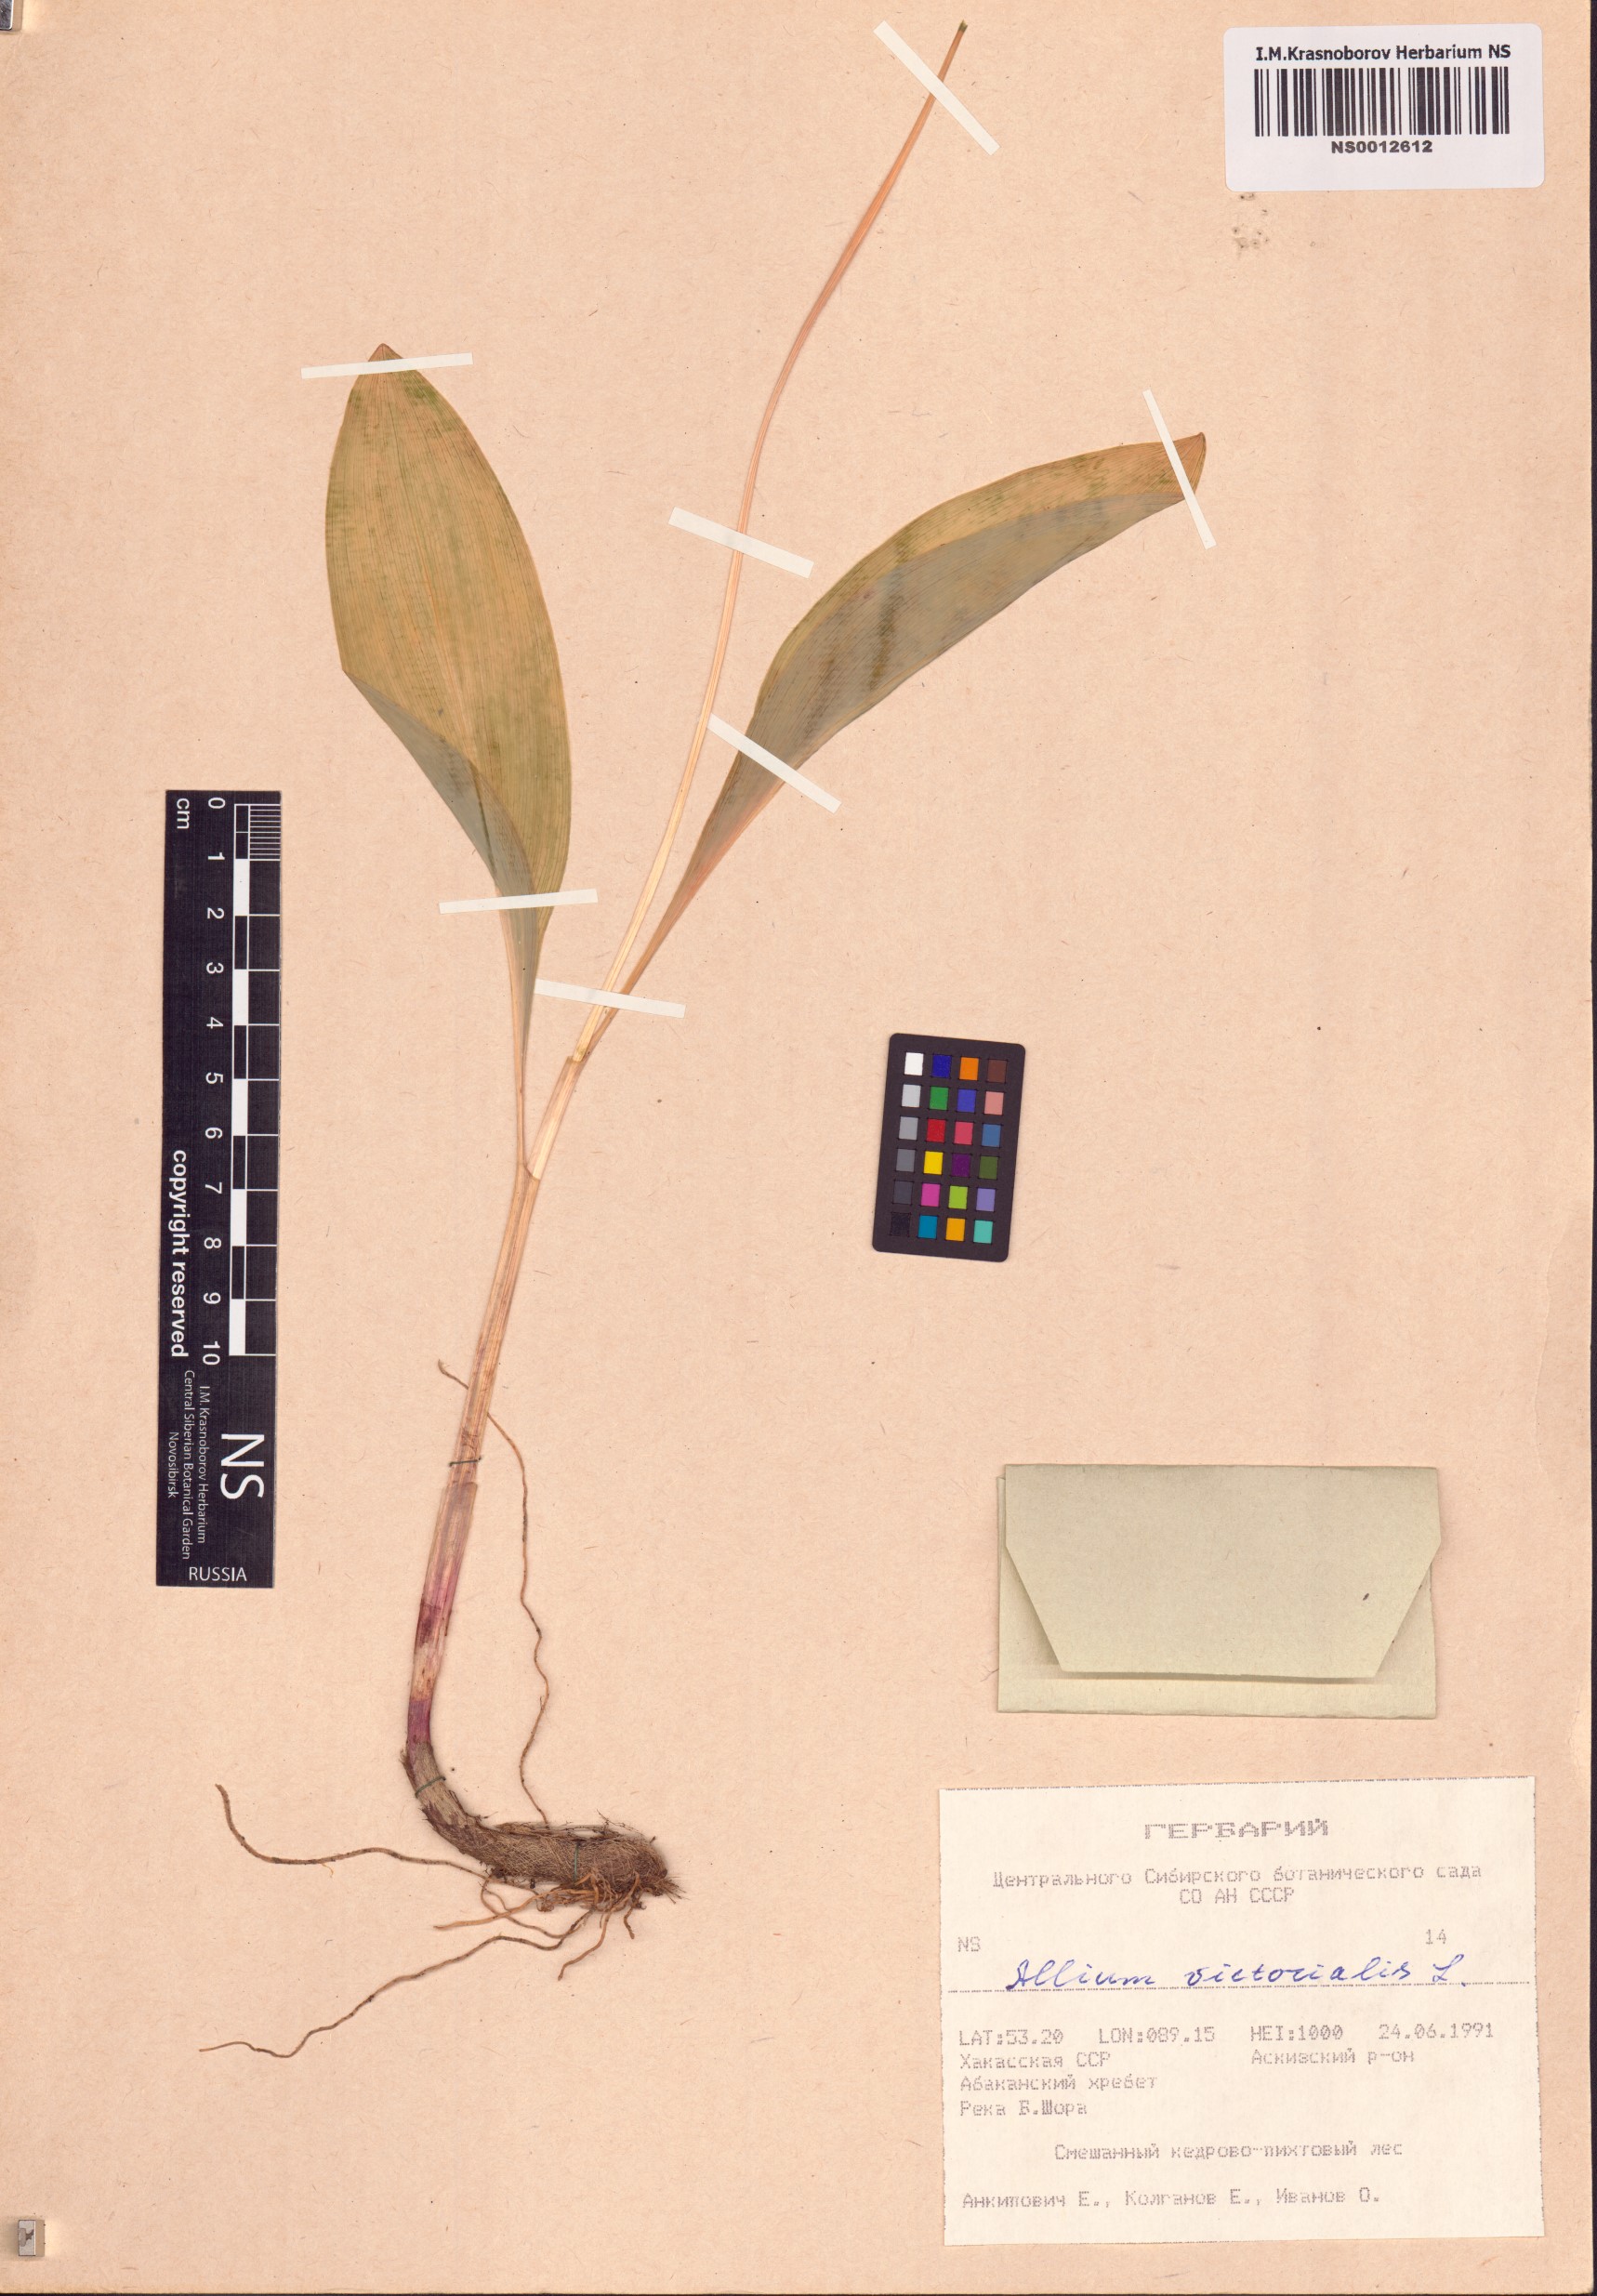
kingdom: Plantae
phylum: Tracheophyta
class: Liliopsida
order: Asparagales
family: Amaryllidaceae
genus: Allium
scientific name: Allium microdictyon
